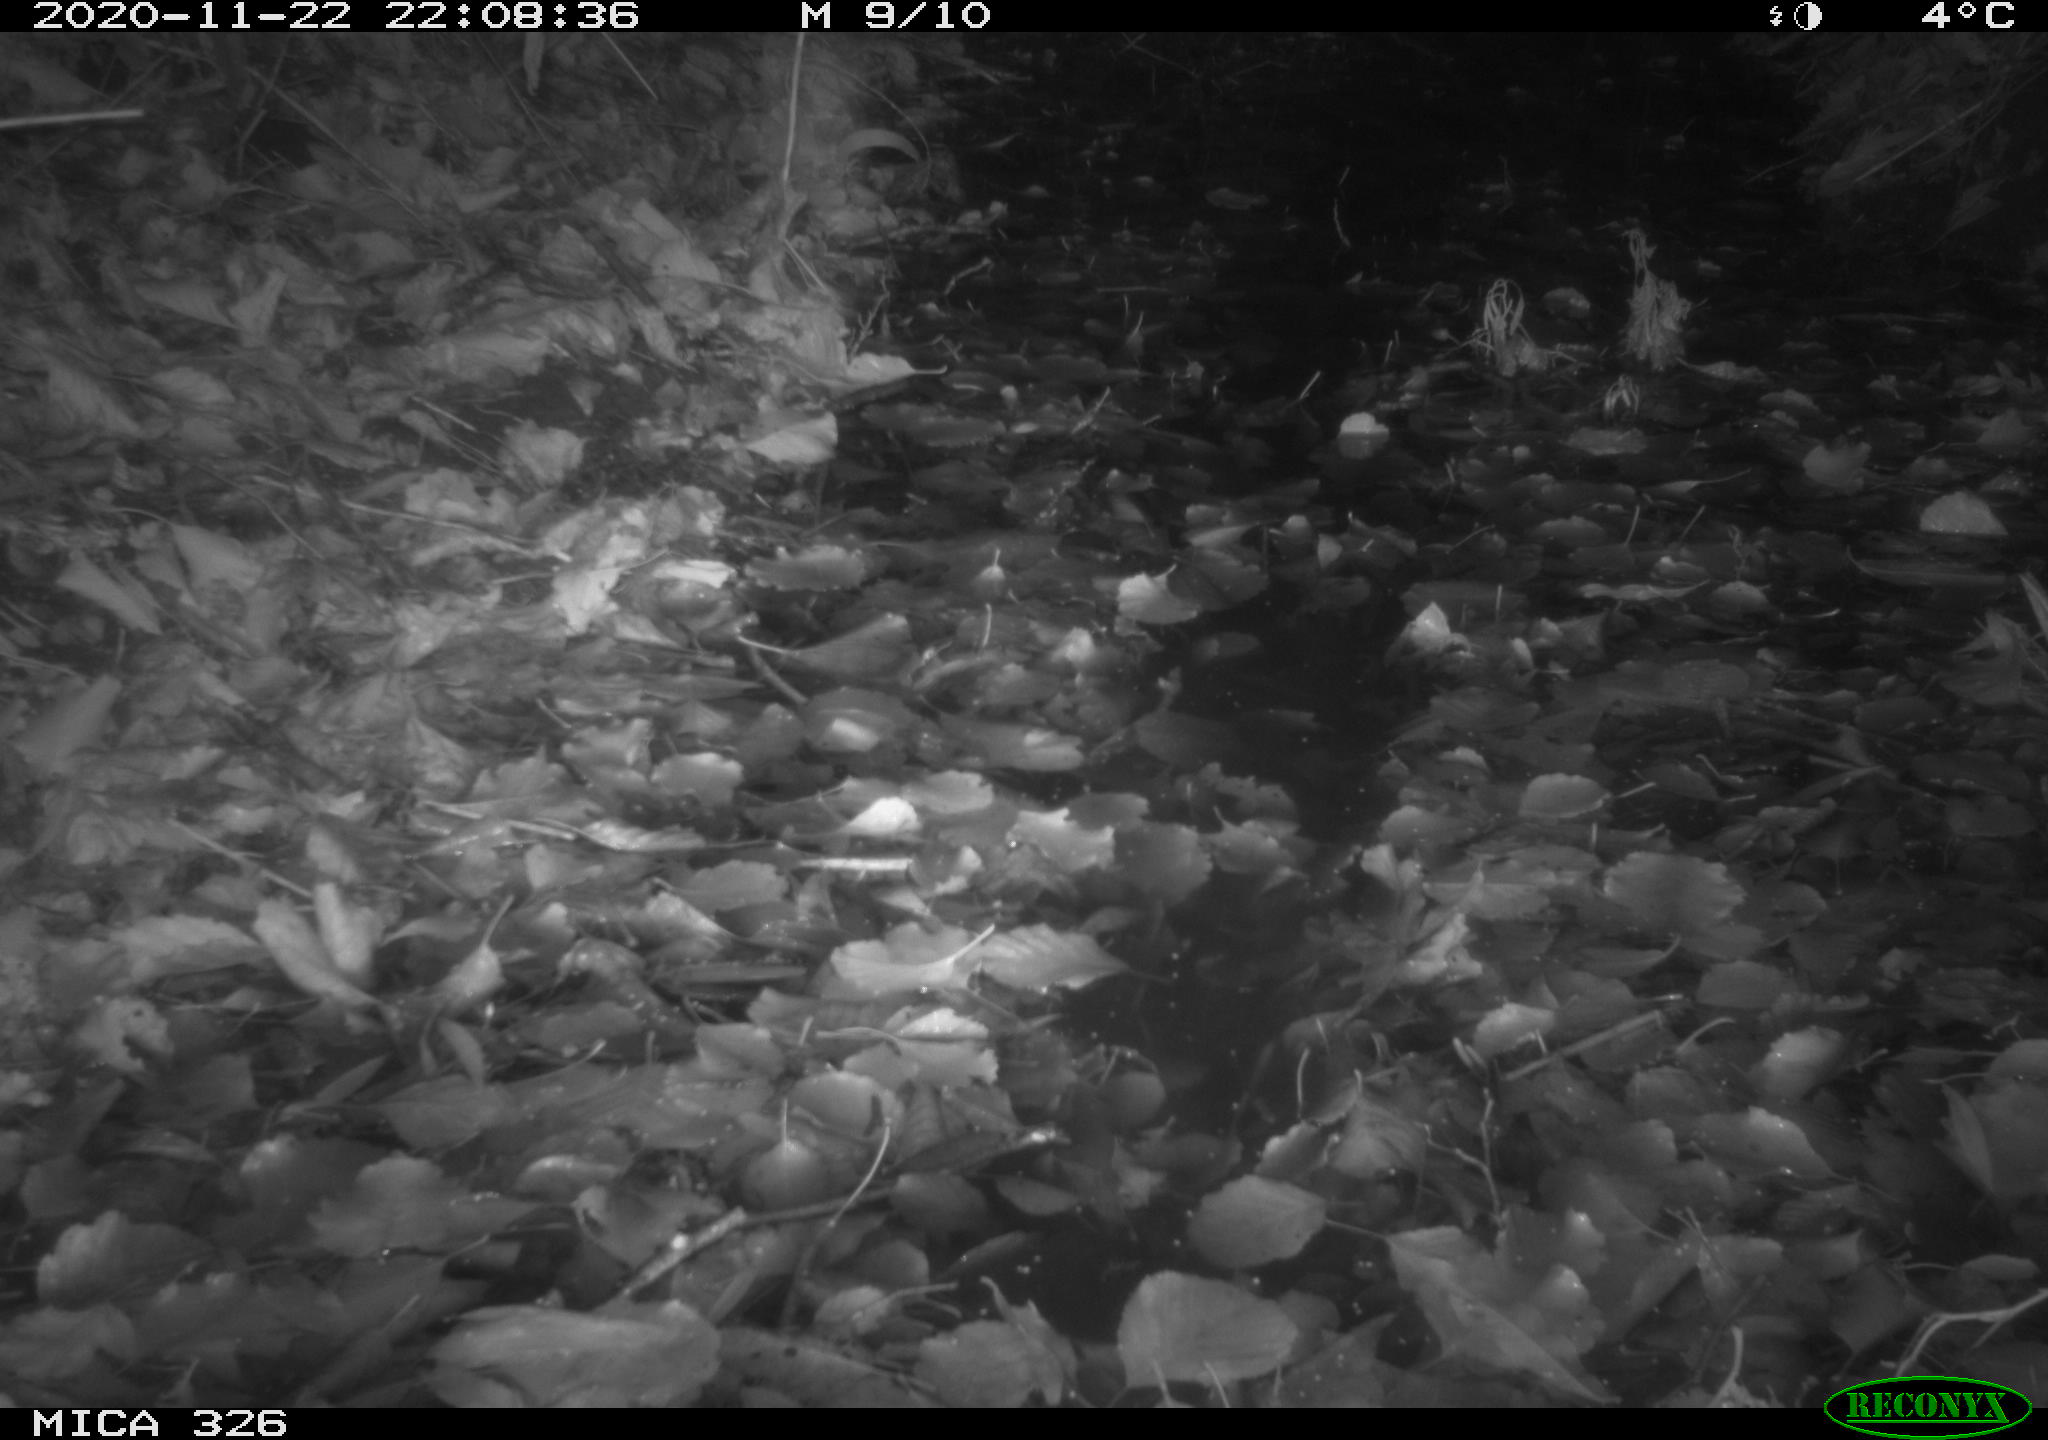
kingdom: Animalia
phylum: Chordata
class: Mammalia
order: Rodentia
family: Myocastoridae
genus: Myocastor
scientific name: Myocastor coypus
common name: Coypu
